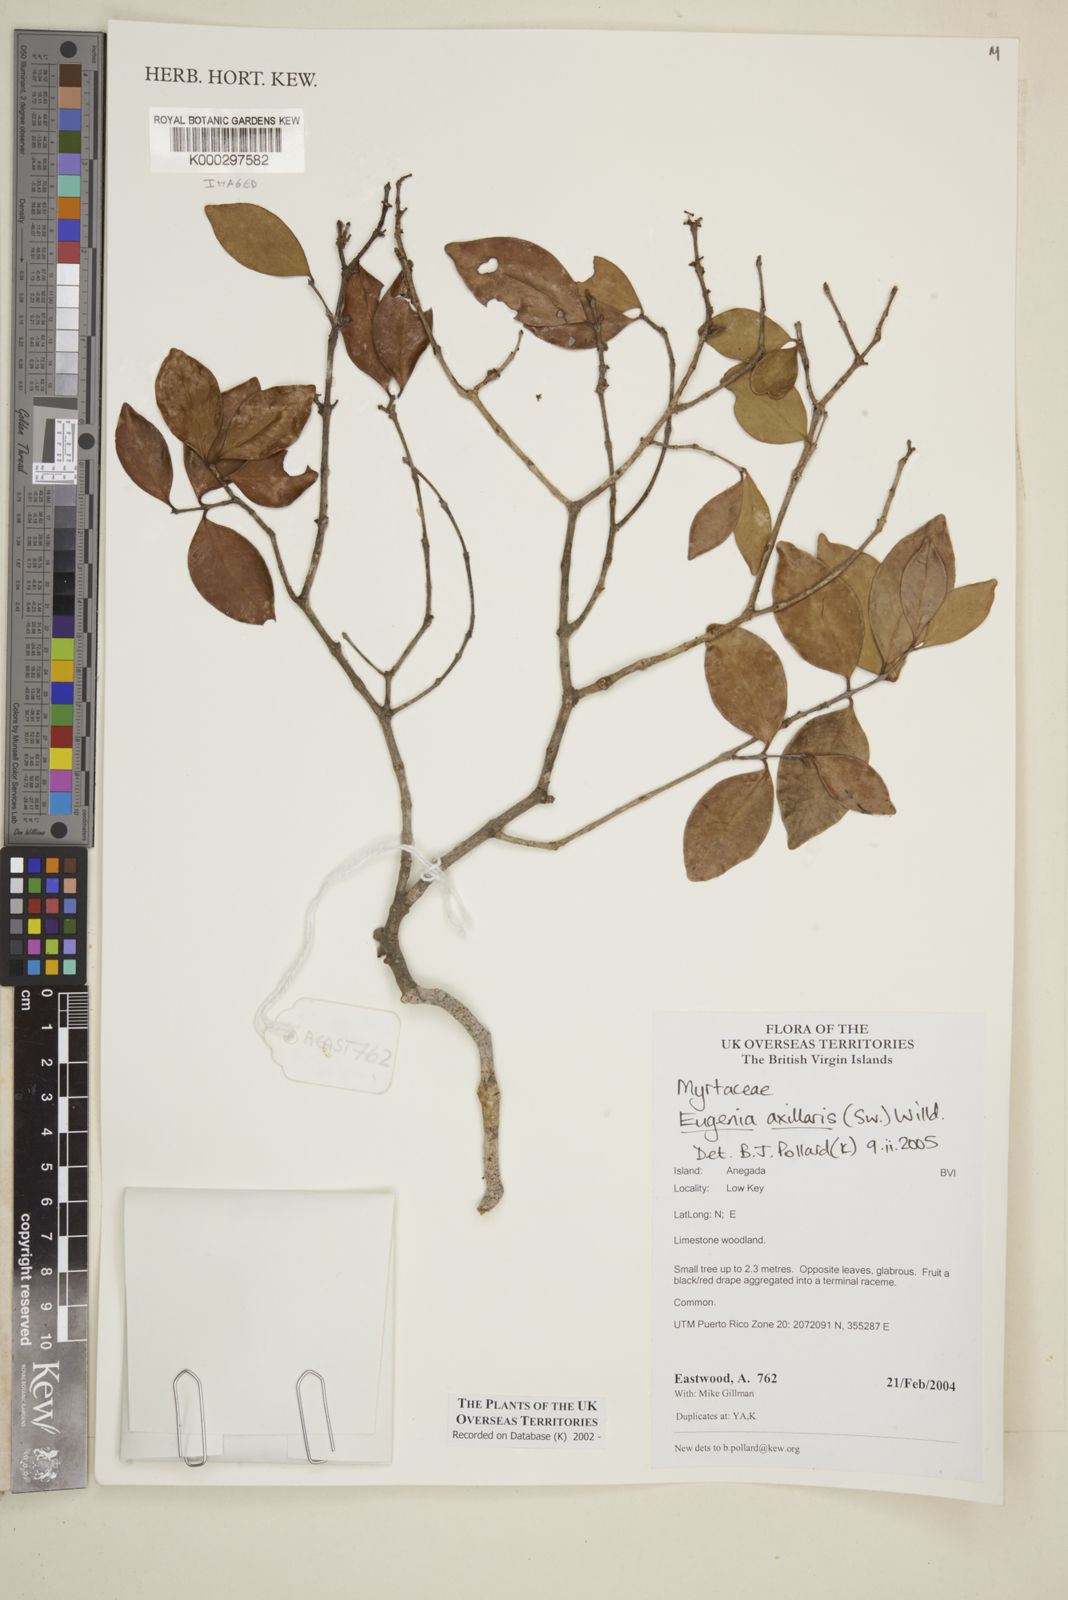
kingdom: Plantae
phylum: Tracheophyta
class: Magnoliopsida
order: Myrtales
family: Myrtaceae
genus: Eugenia
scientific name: Eugenia axillaris
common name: Choaky berry
